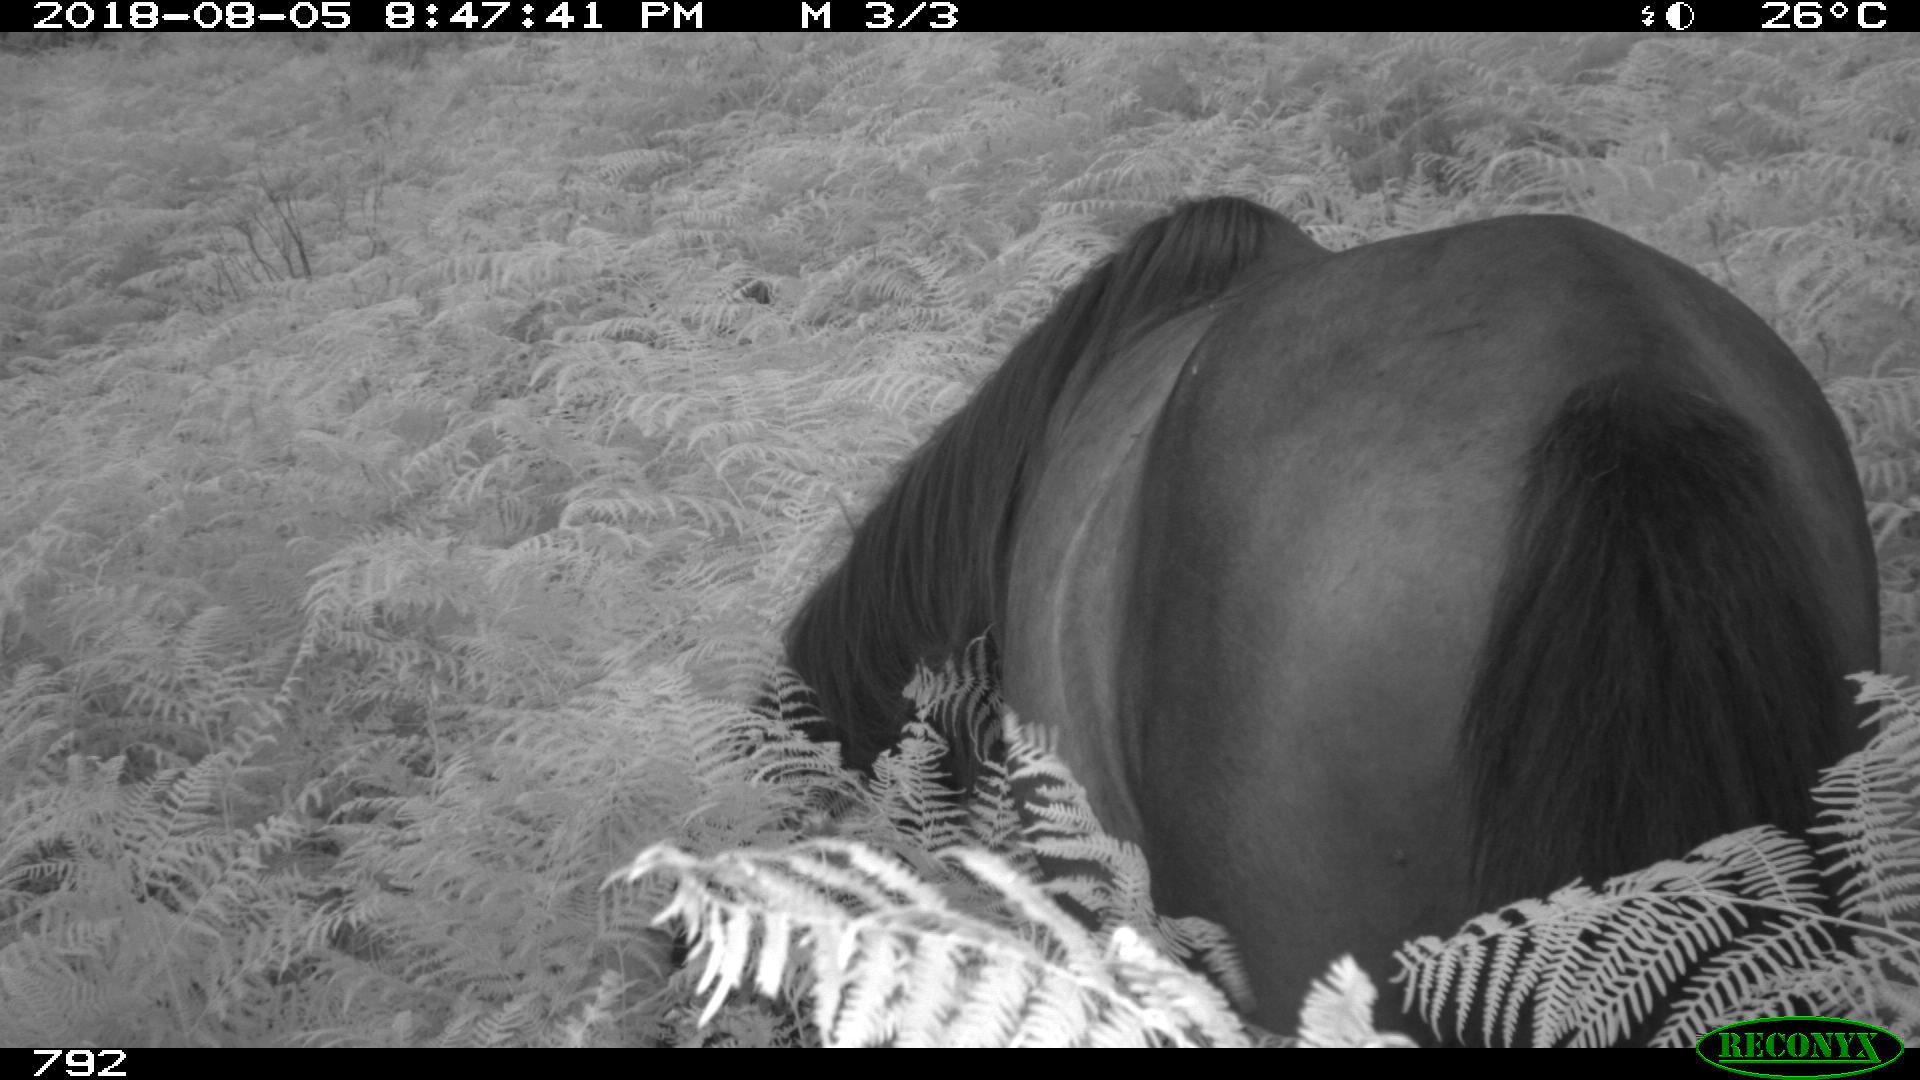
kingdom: Animalia
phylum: Chordata
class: Mammalia
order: Perissodactyla
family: Equidae
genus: Equus
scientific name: Equus caballus
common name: Horse
